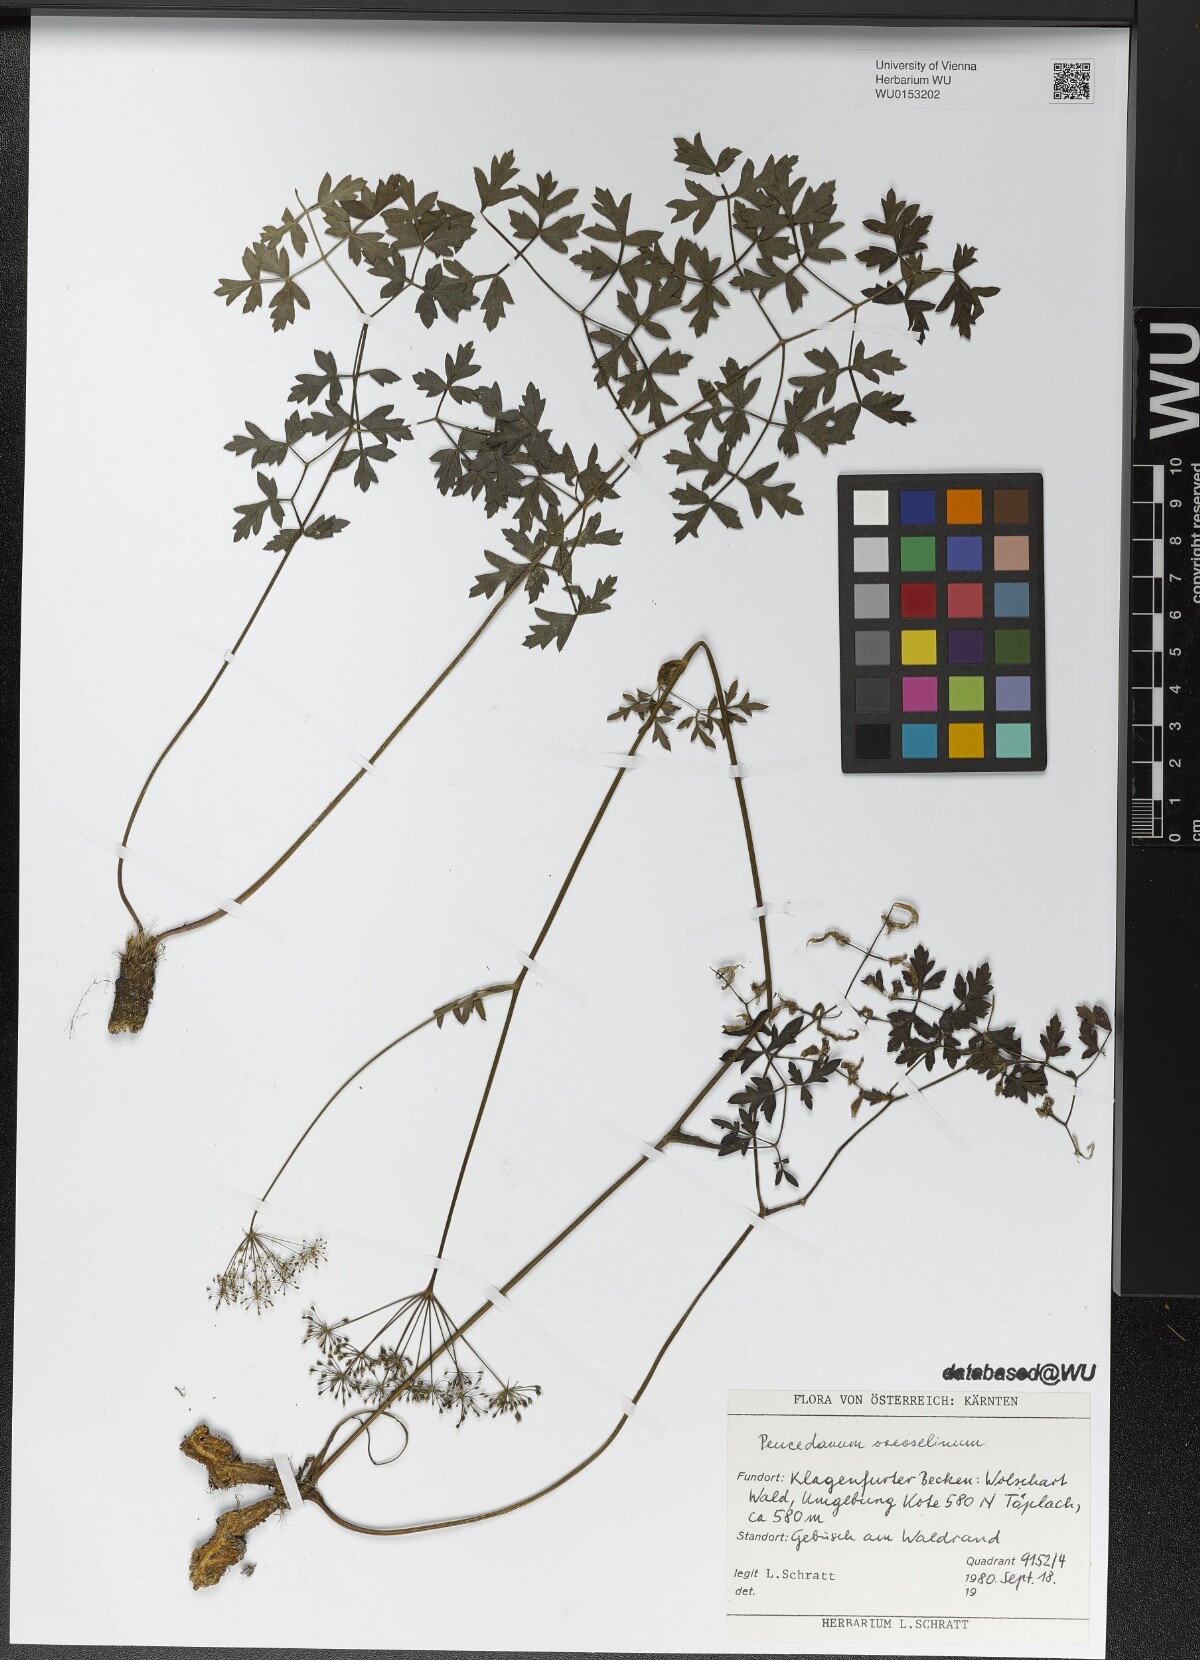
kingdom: Plantae
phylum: Tracheophyta
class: Magnoliopsida
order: Apiales
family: Apiaceae
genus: Oreoselinum
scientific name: Oreoselinum nigrum
